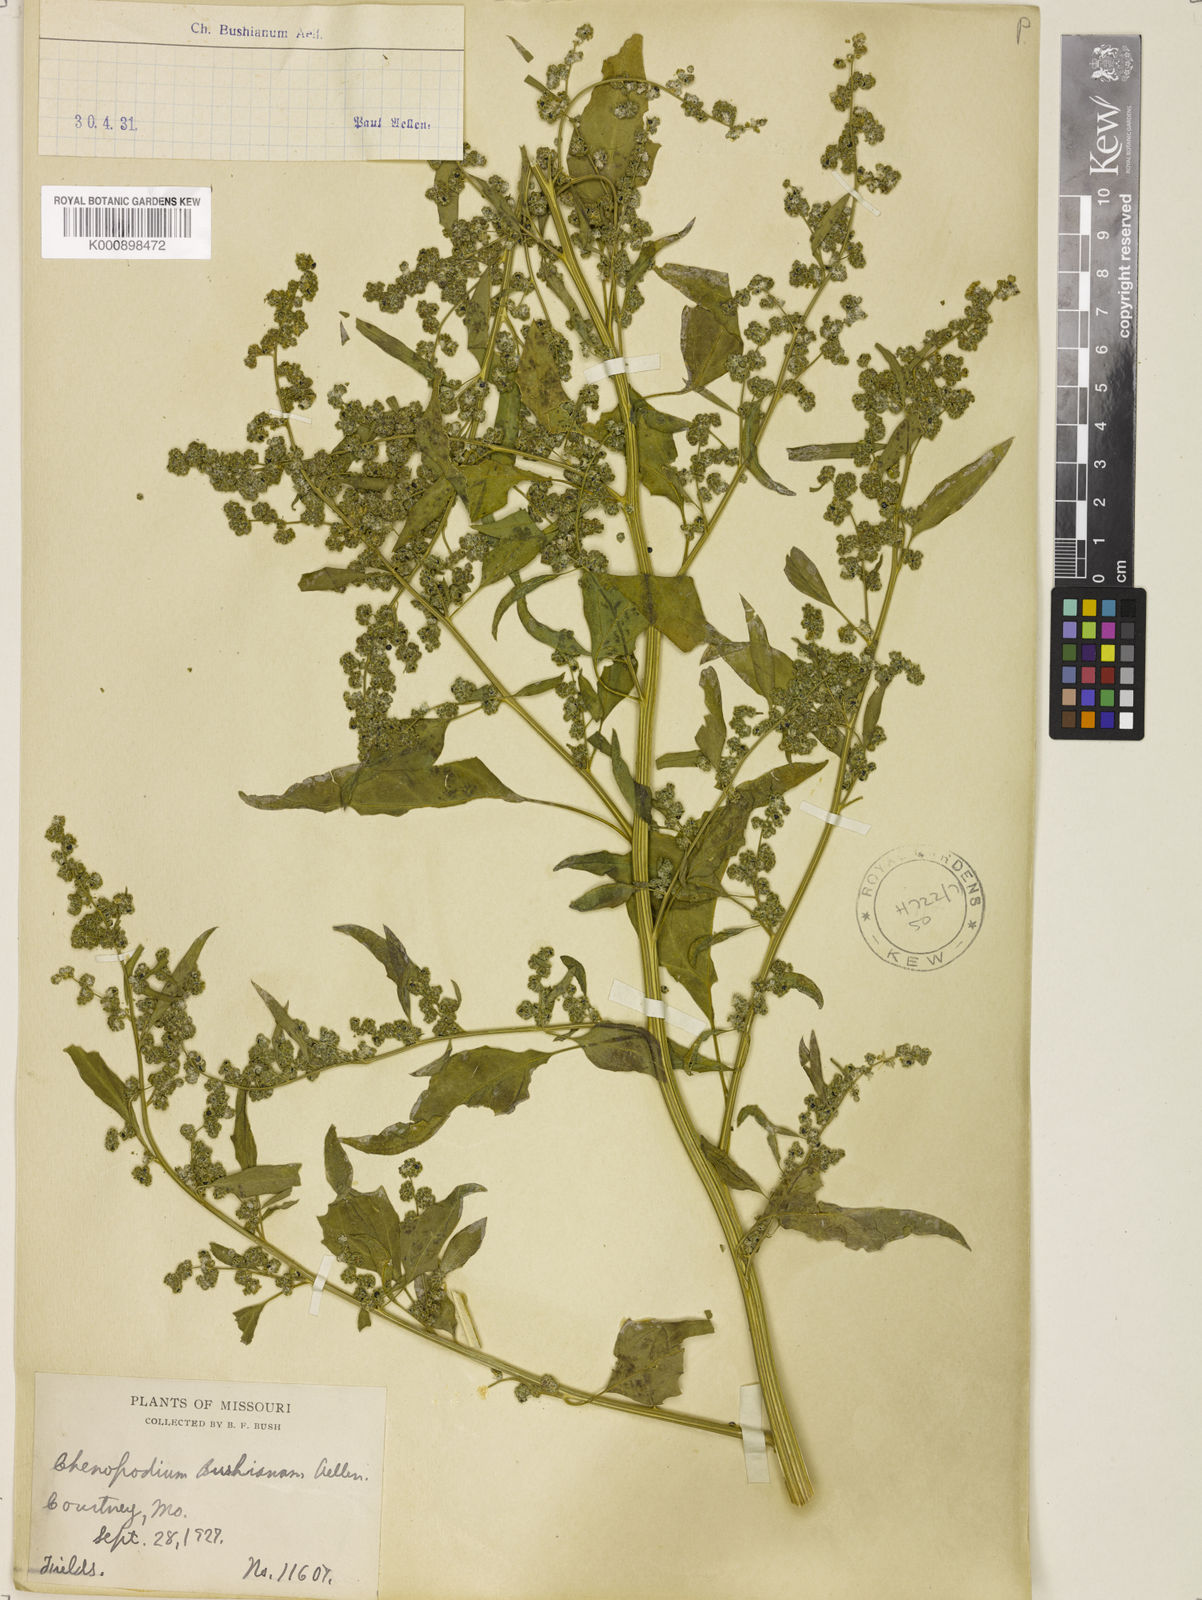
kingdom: Plantae
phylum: Tracheophyta
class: Magnoliopsida
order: Caryophyllales
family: Amaranthaceae
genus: Chenopodium
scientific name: Chenopodium berlandieri
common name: Pit-seed goosefoot
